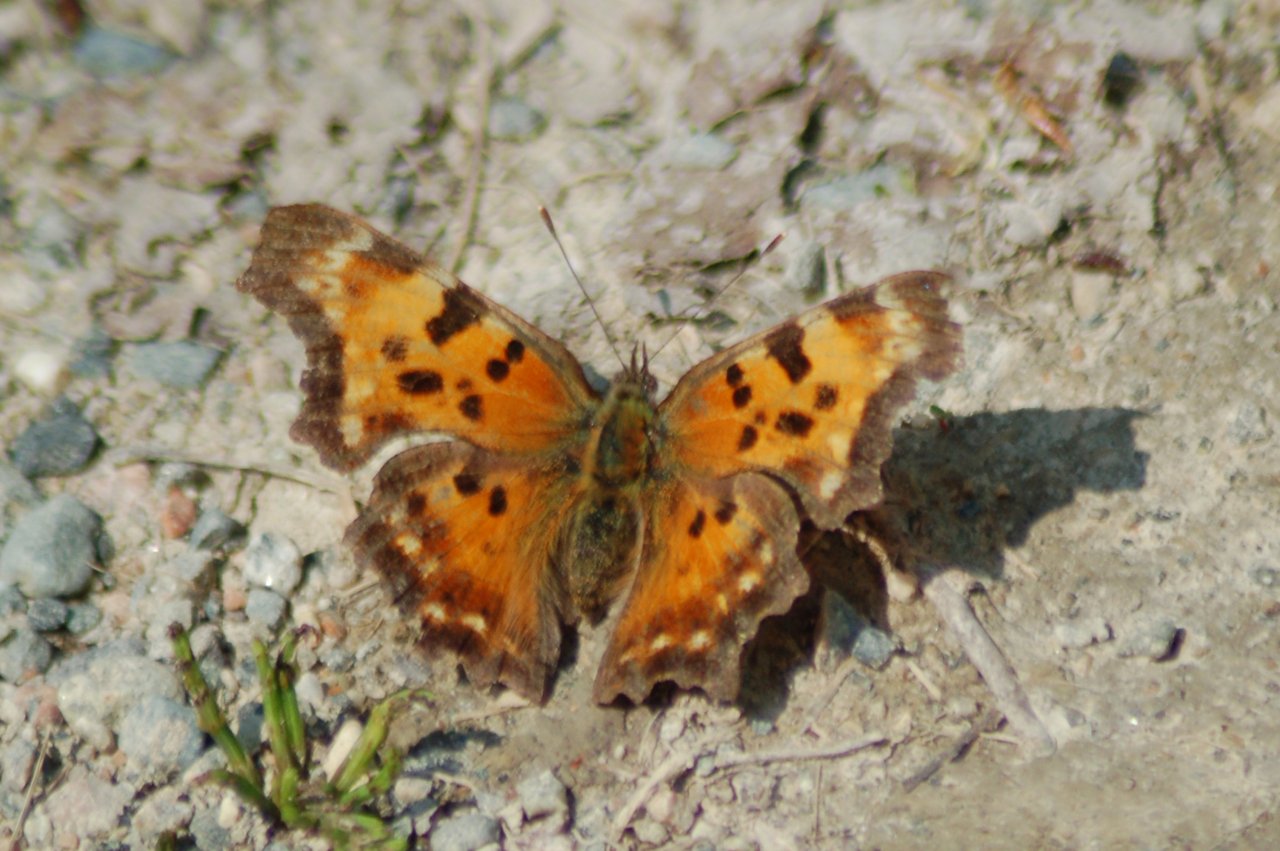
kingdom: Animalia
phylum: Arthropoda
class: Insecta
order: Lepidoptera
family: Nymphalidae
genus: Polygonia
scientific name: Polygonia comma
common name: Eastern Comma
